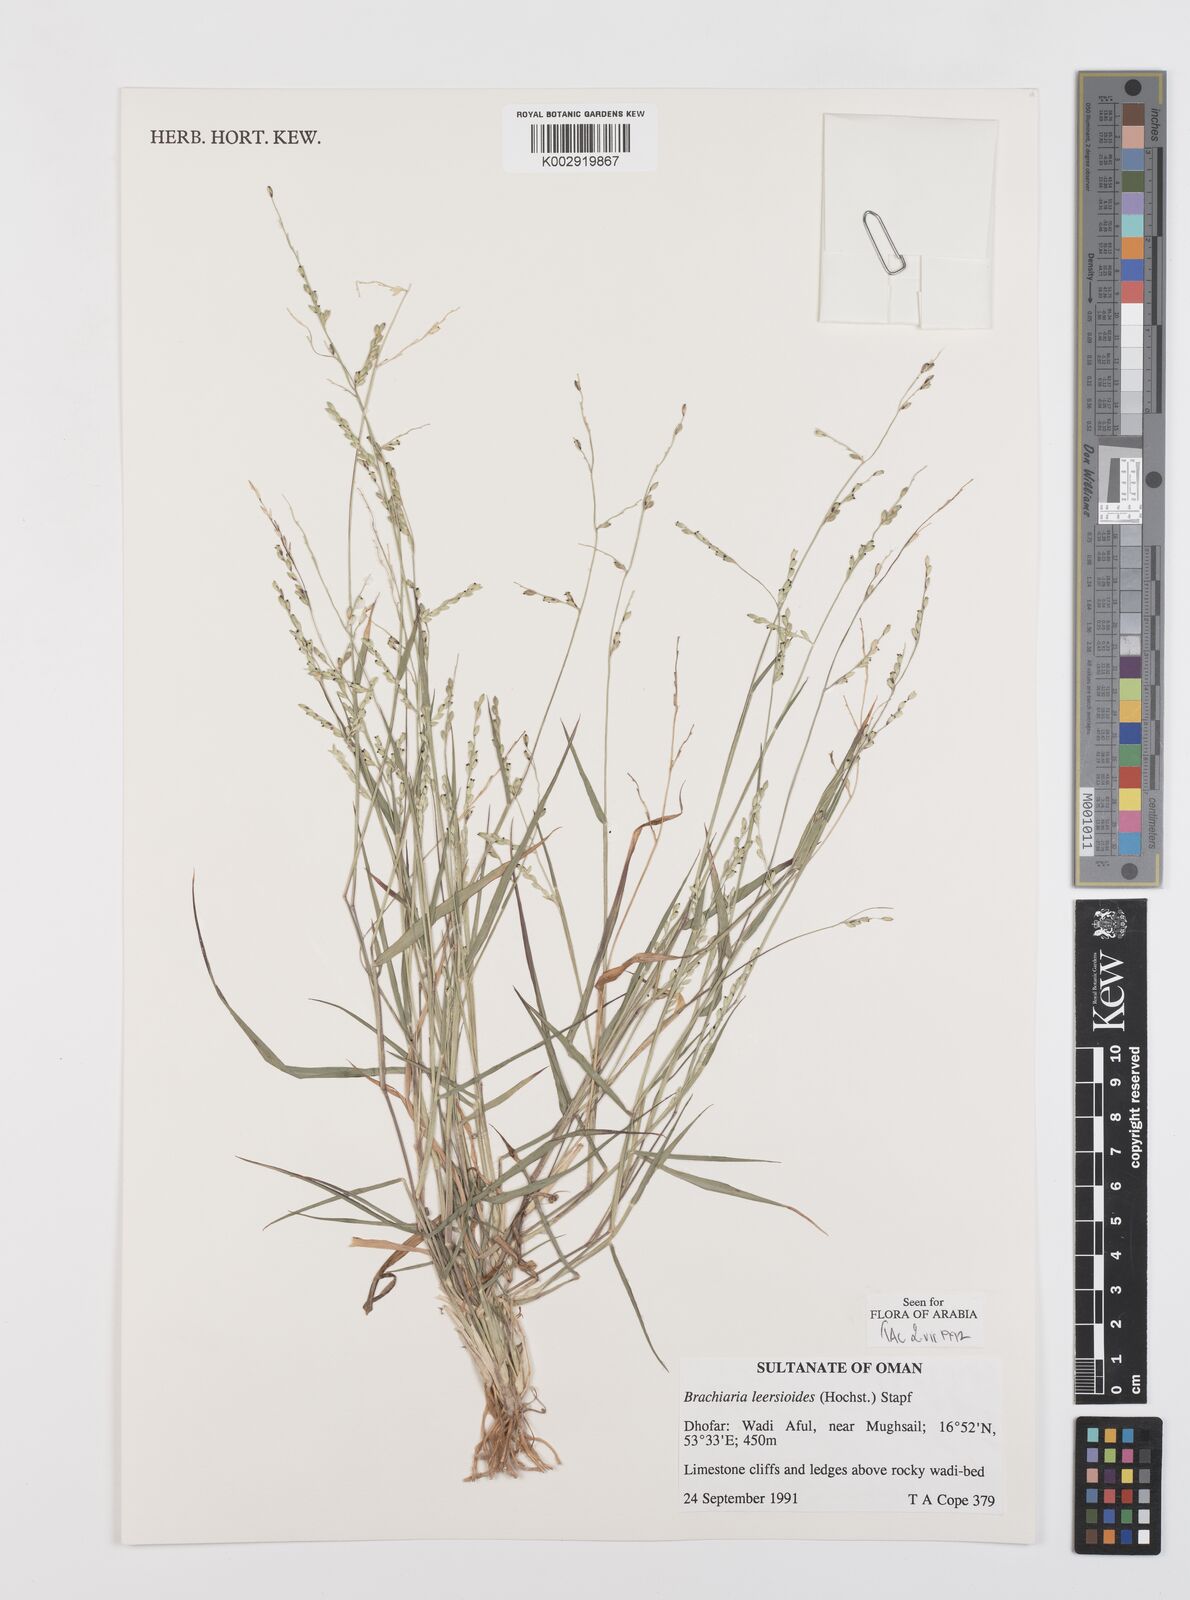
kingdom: Plantae
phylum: Tracheophyta
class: Liliopsida
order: Poales
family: Poaceae
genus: Urochloa
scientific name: Urochloa leersioides
